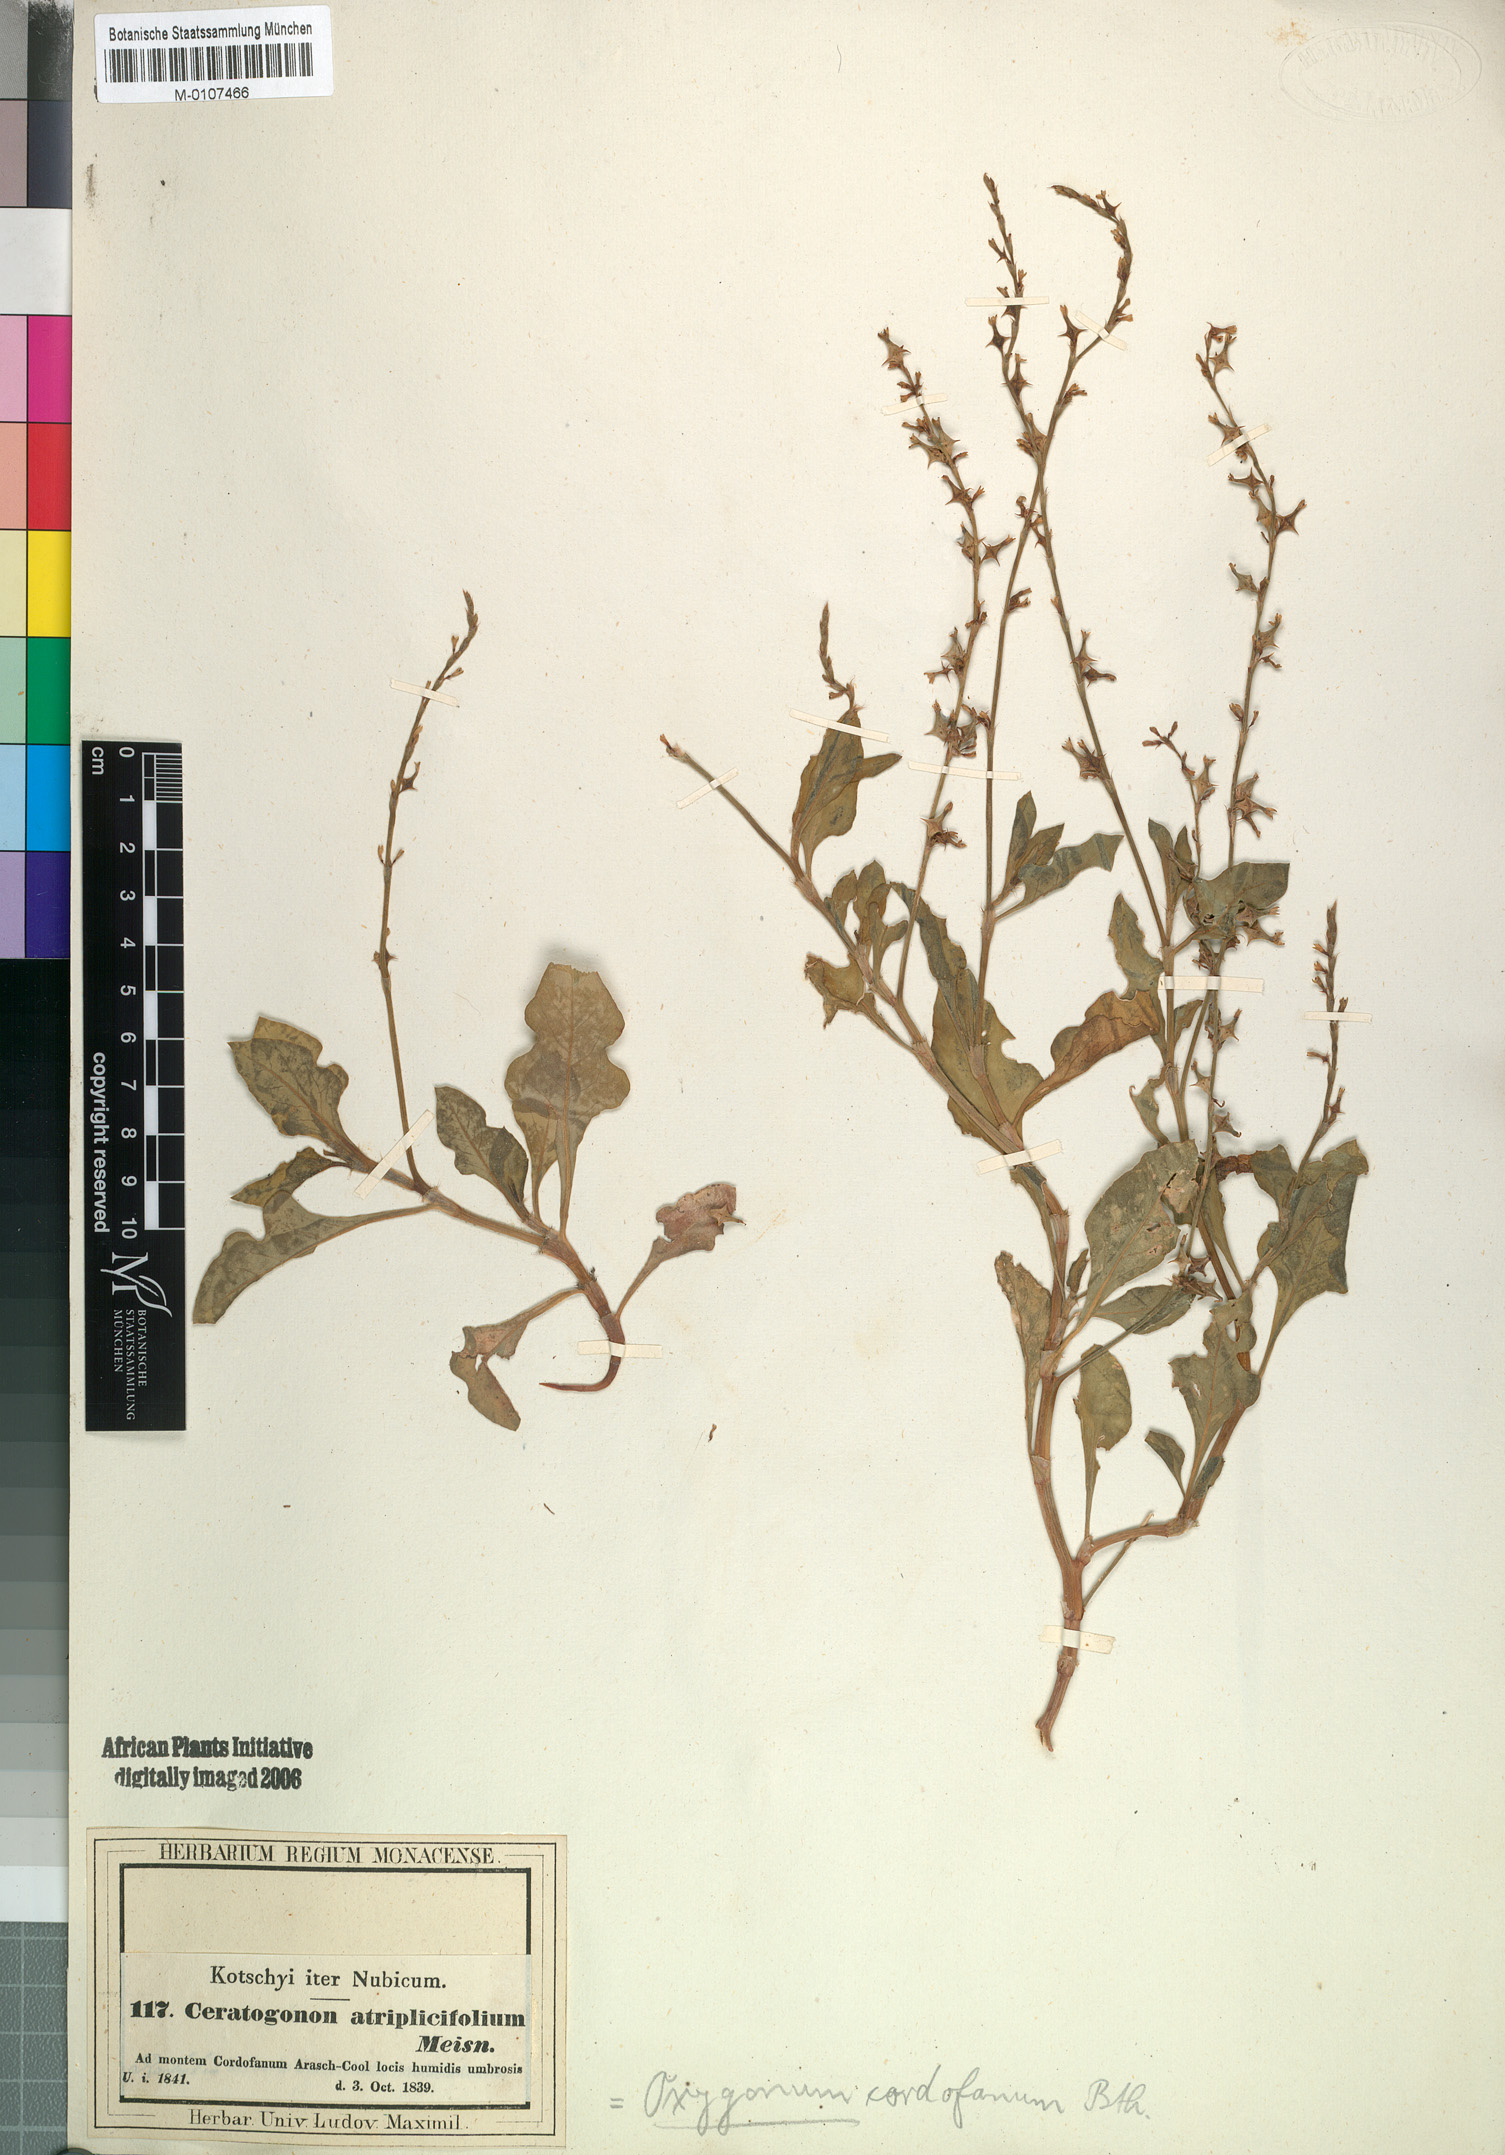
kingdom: Plantae
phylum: Tracheophyta
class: Magnoliopsida
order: Caryophyllales
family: Polygonaceae
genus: Oxygonum
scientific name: Oxygonum sinuatum
